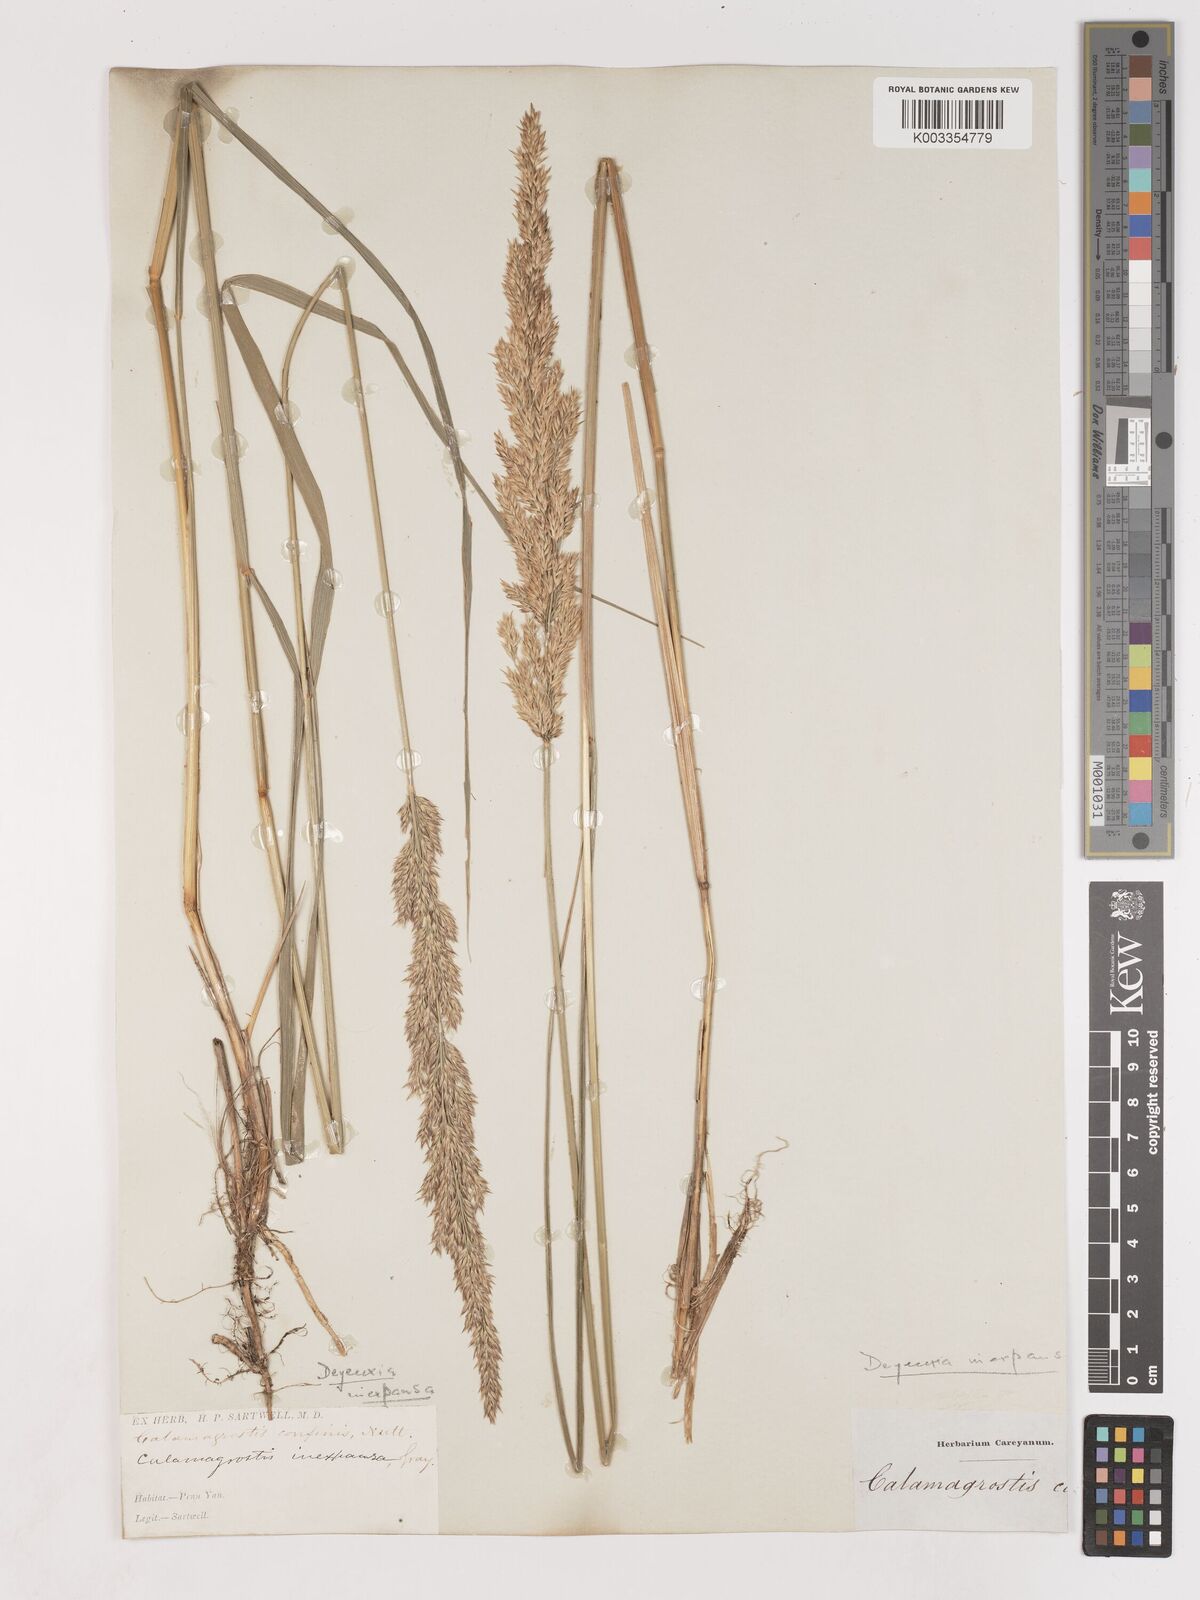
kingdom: Plantae
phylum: Tracheophyta
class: Liliopsida
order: Poales
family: Poaceae
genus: Cinnagrostis
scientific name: Cinnagrostis recta
